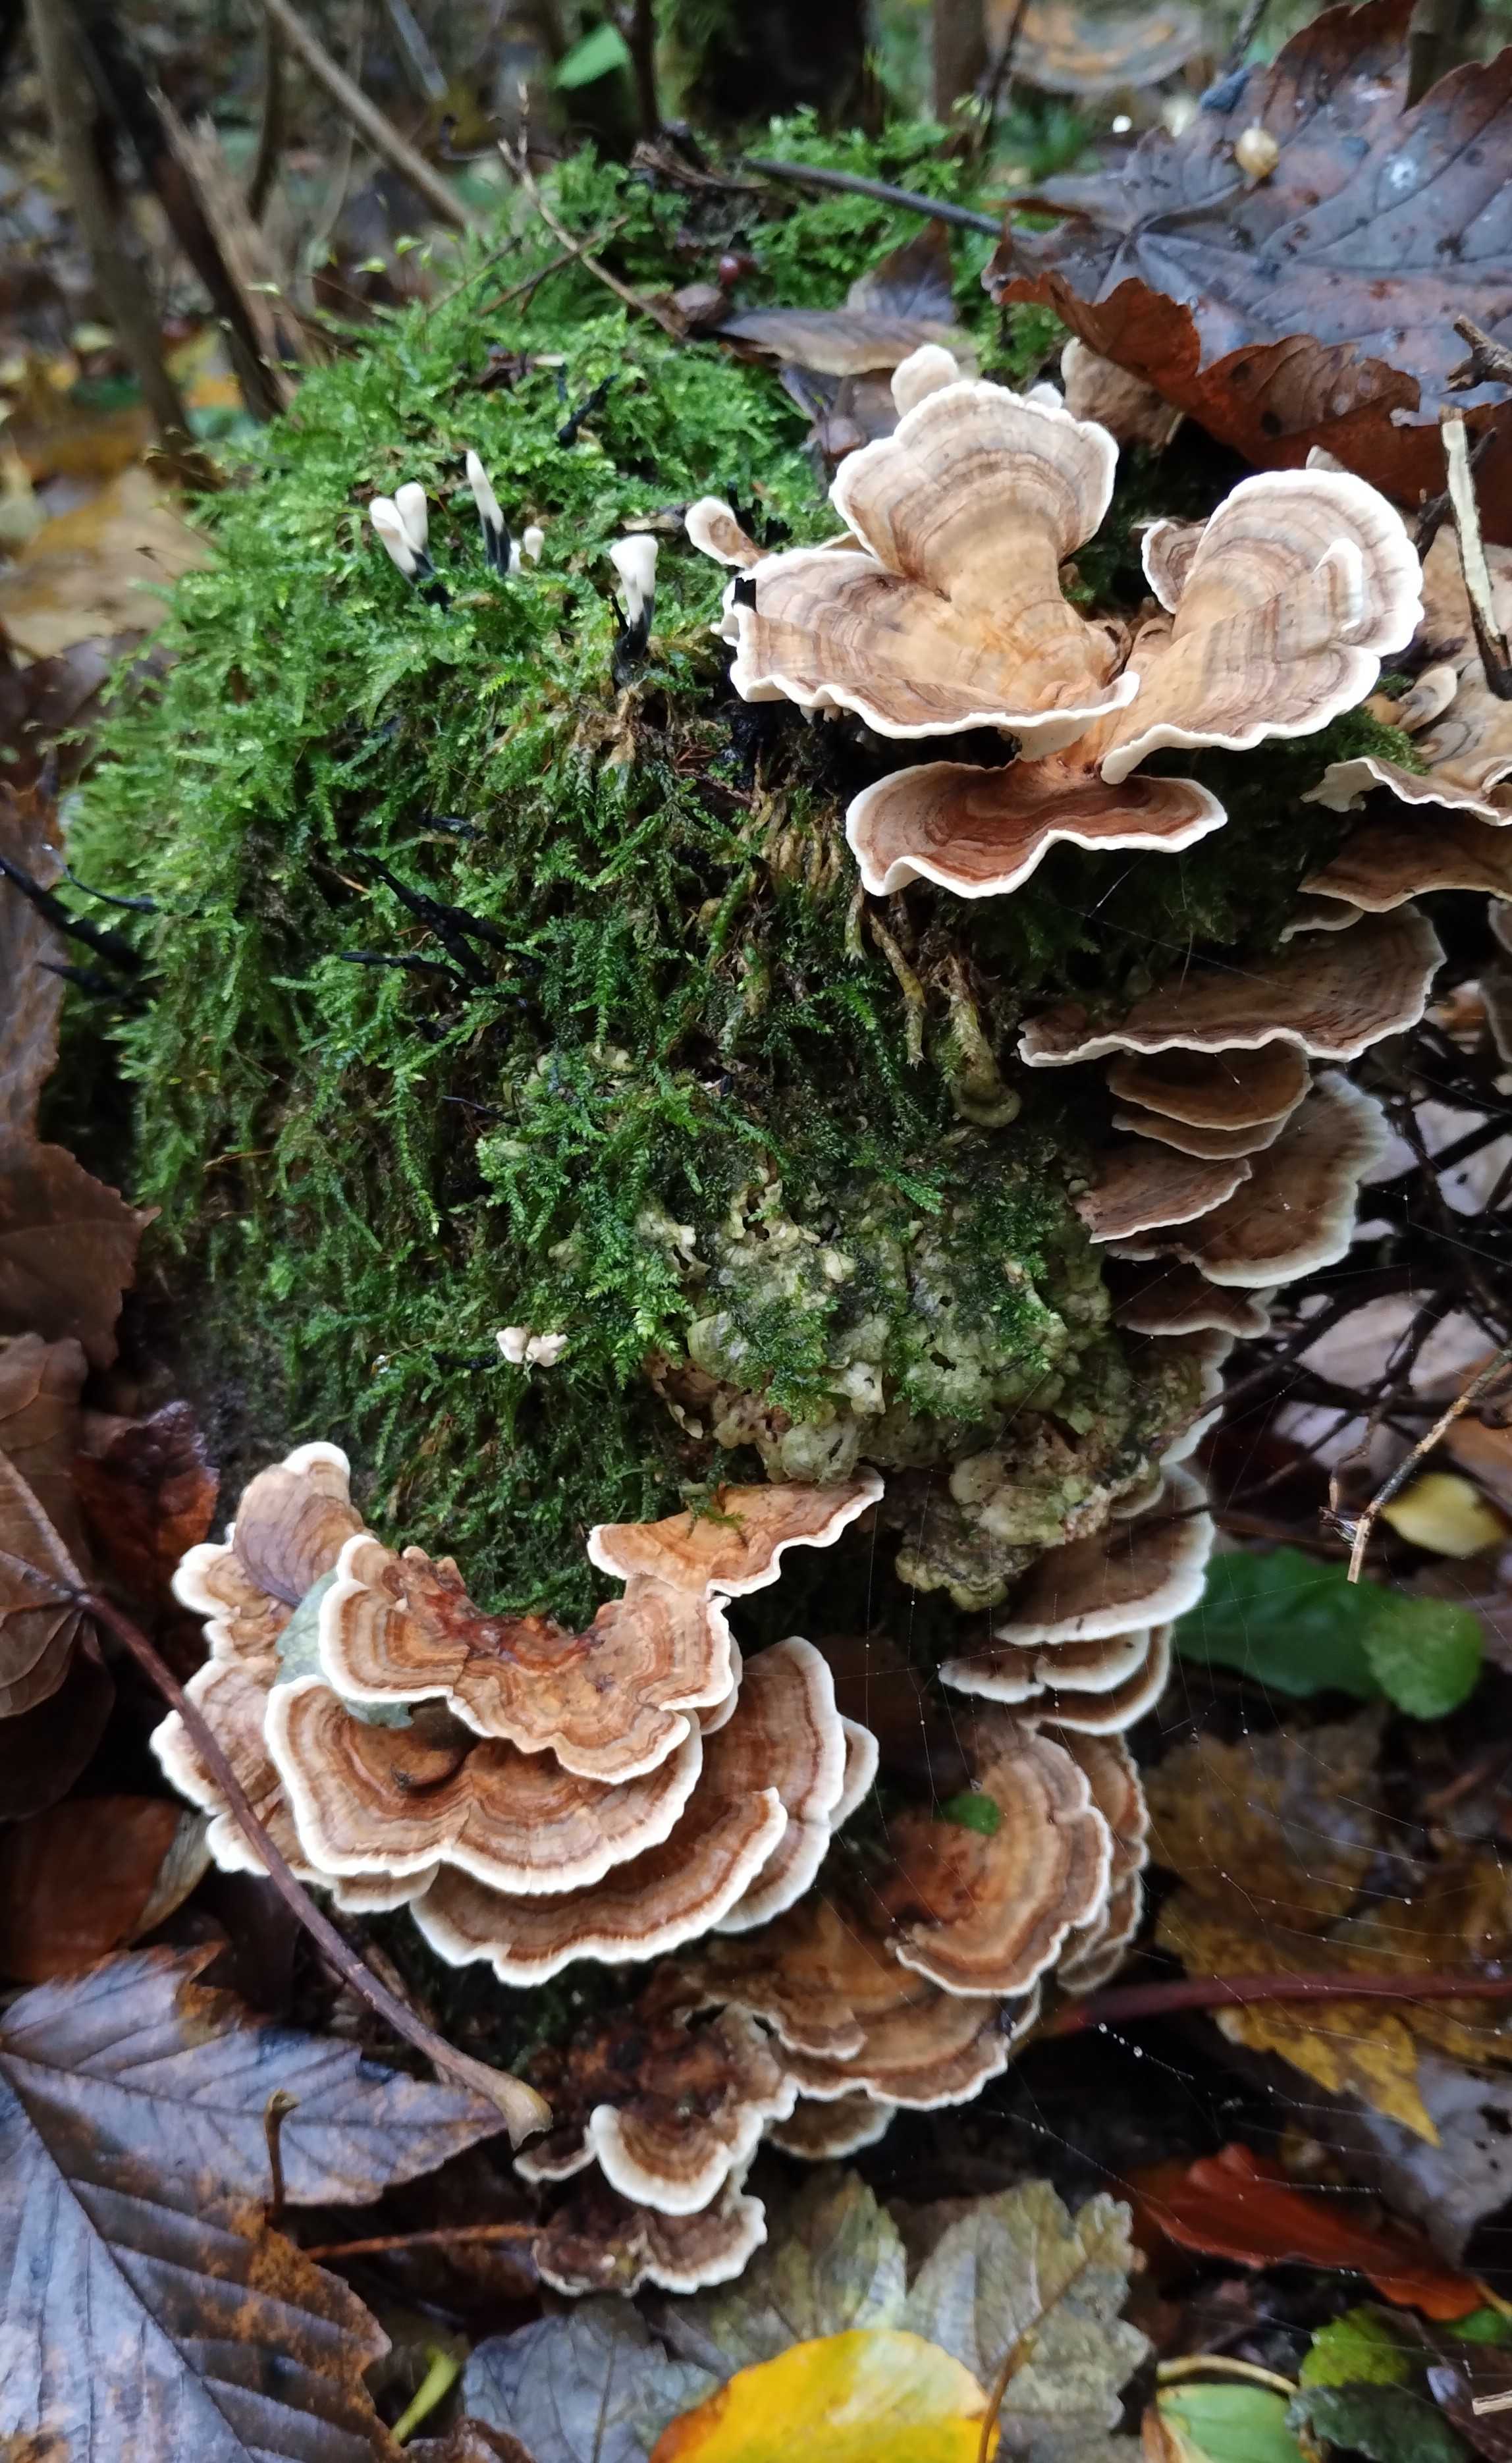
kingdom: Fungi
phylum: Basidiomycota
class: Agaricomycetes
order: Polyporales
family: Polyporaceae
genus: Trametes
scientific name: Trametes versicolor
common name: broget læderporesvamp
